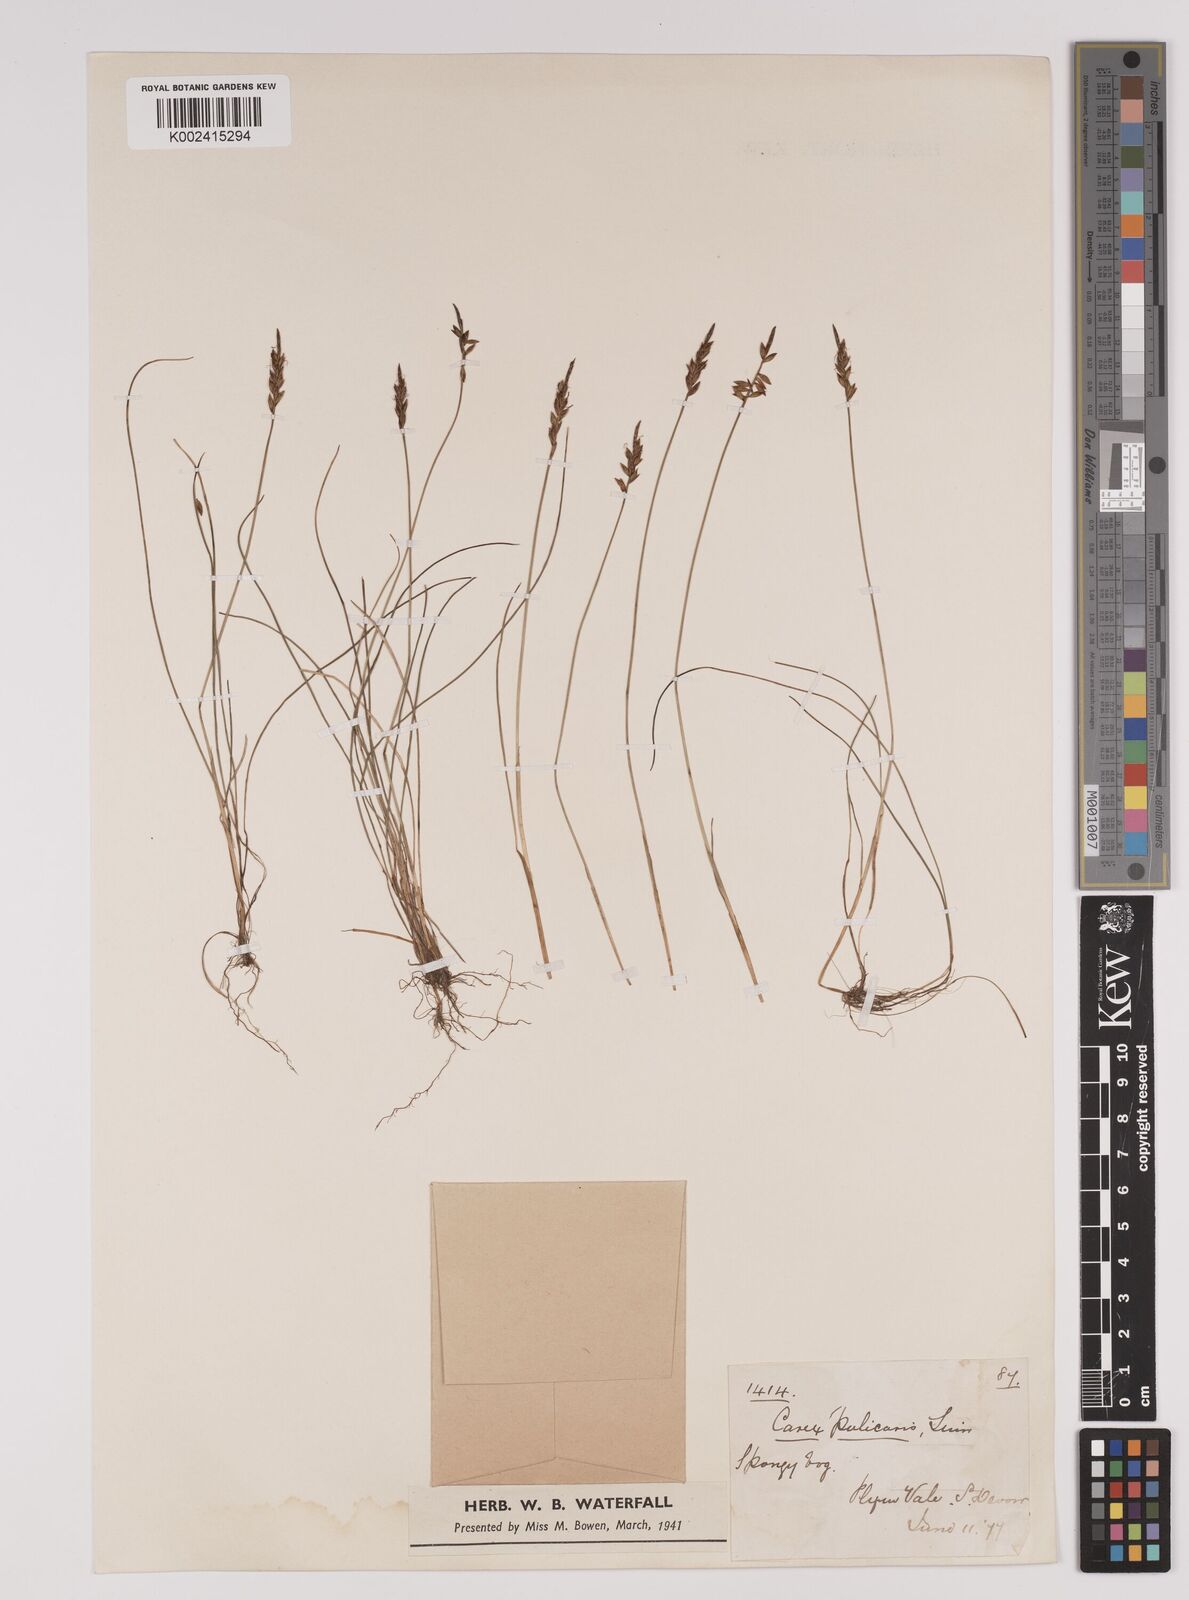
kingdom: Plantae
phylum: Tracheophyta
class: Liliopsida
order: Poales
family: Cyperaceae
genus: Carex
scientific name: Carex pulicaris
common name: Flea sedge
